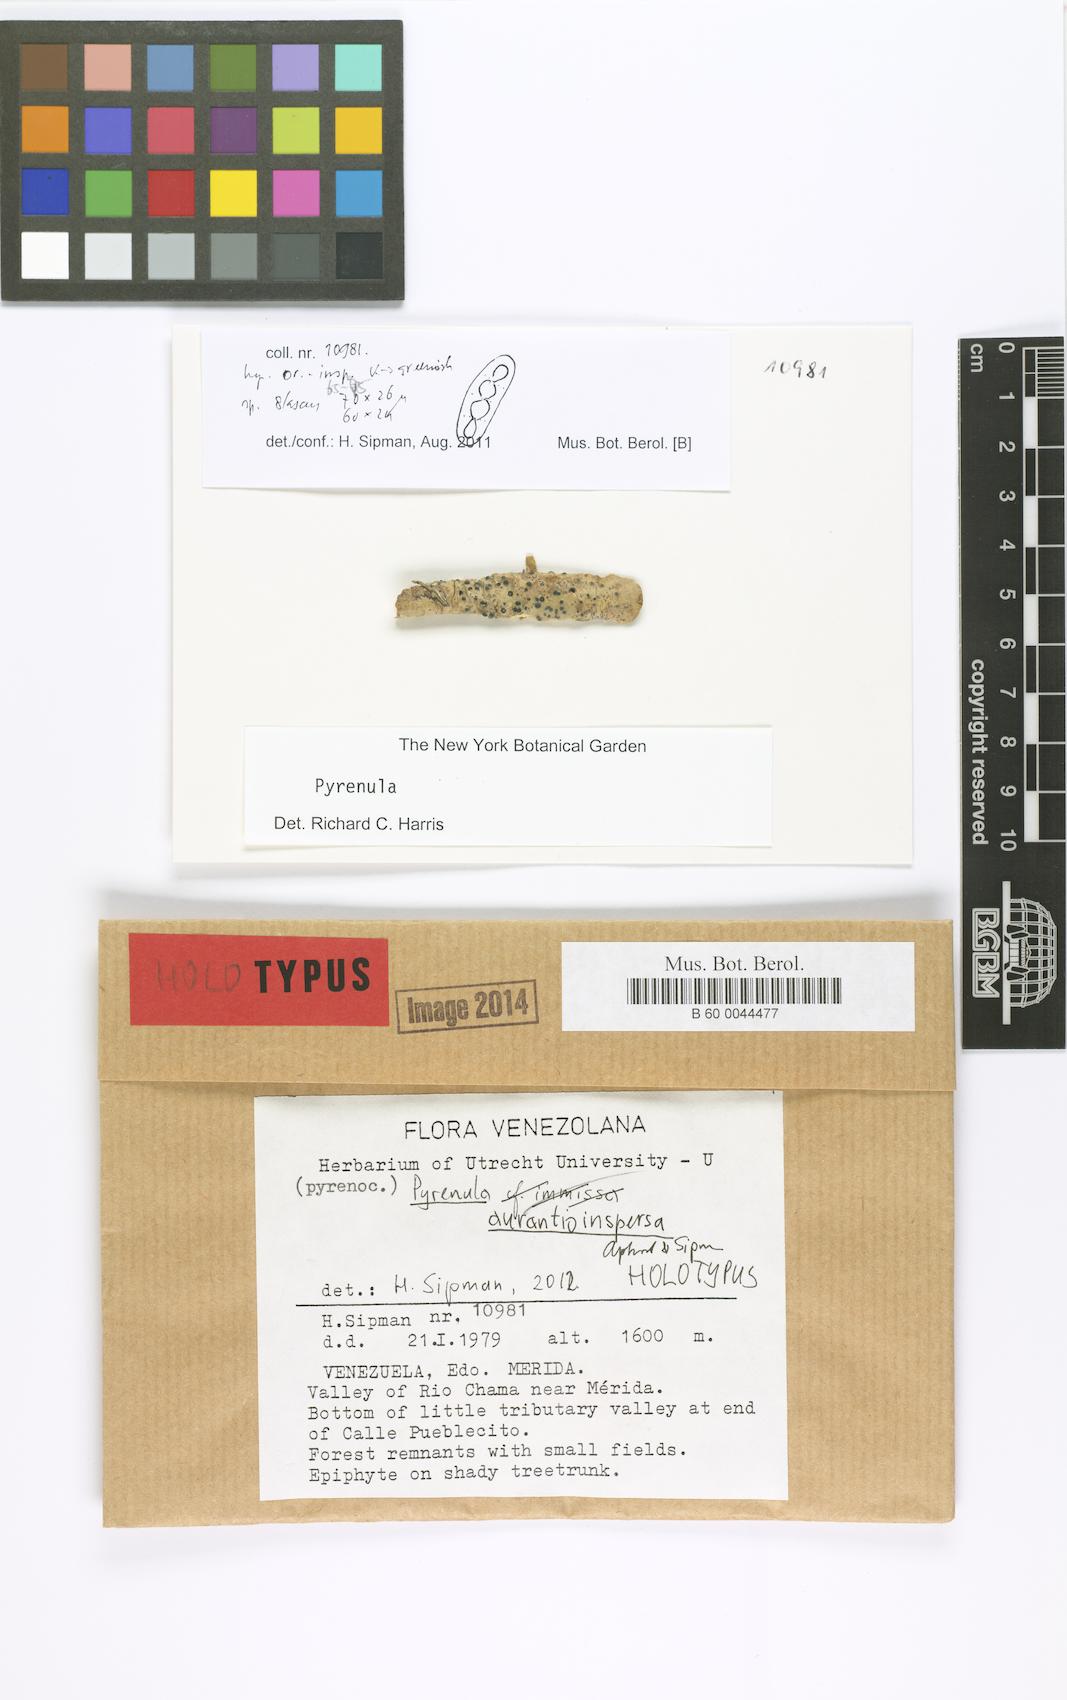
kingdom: Fungi
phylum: Ascomycota
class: Eurotiomycetes
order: Pyrenulales
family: Pyrenulaceae
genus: Pyrenula
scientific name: Pyrenula aurantioinspersa
